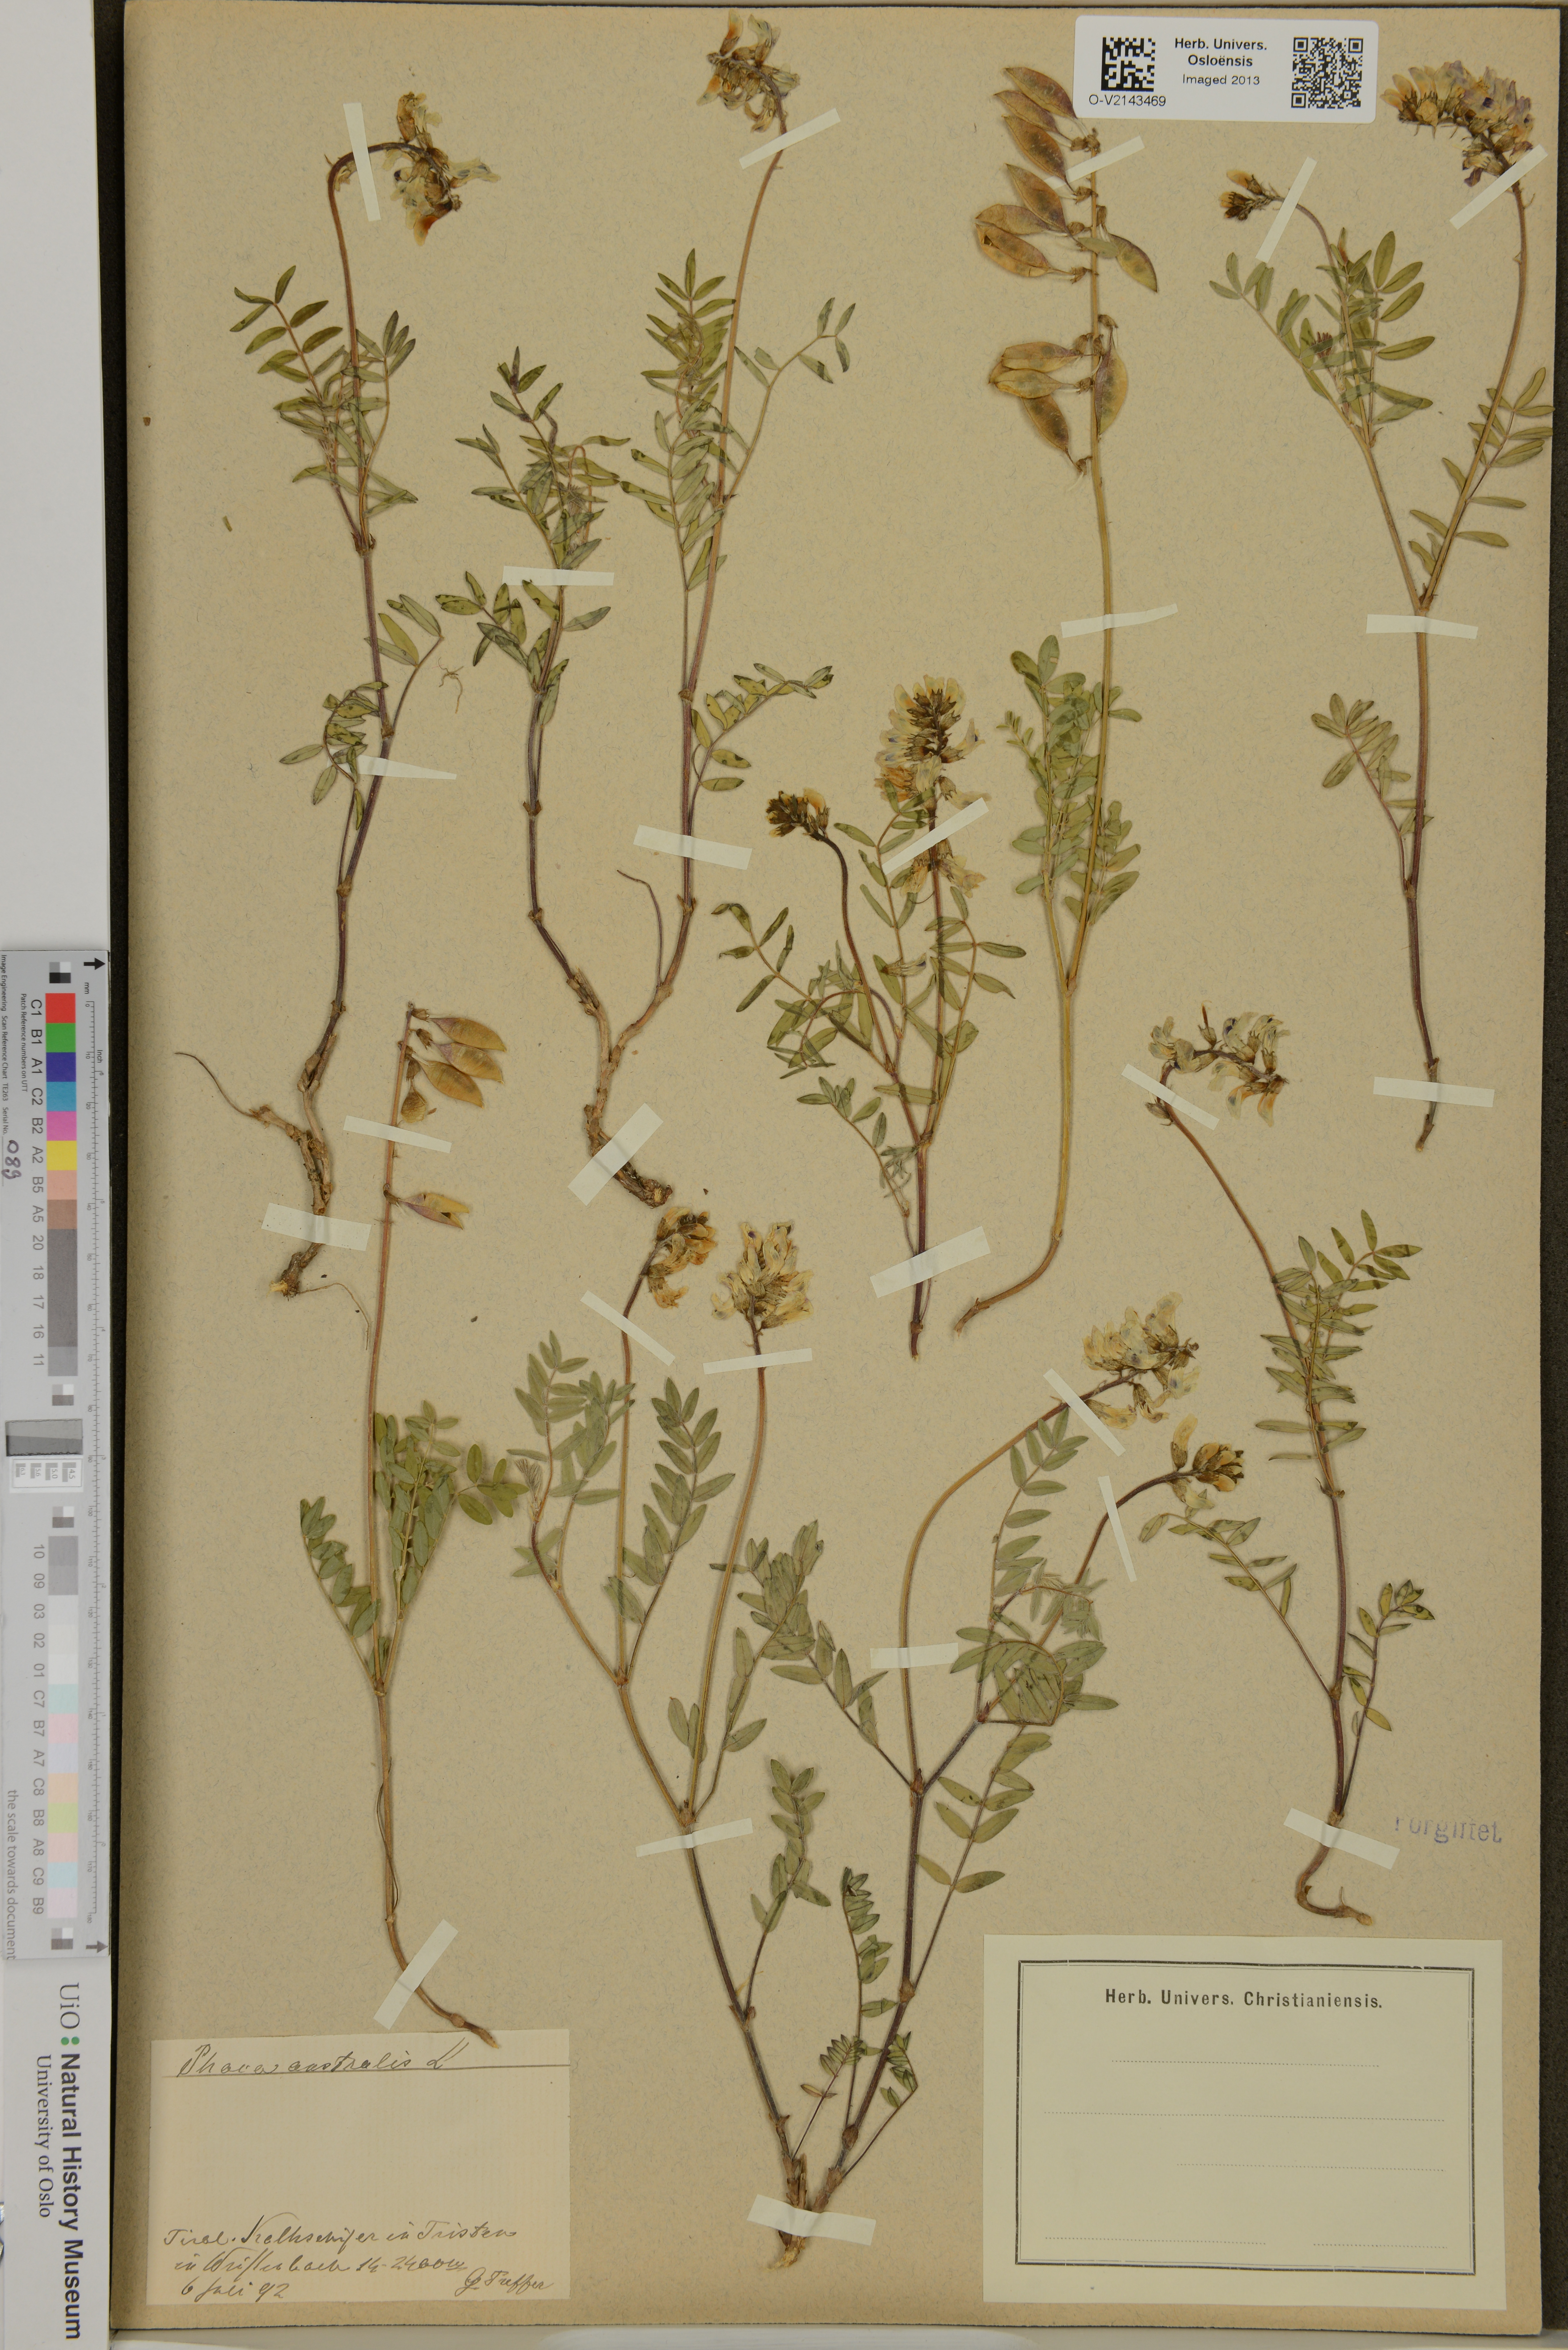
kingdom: Plantae
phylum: Tracheophyta
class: Magnoliopsida
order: Fabales
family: Fabaceae
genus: Astragalus
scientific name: Astragalus australis
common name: Indian milk-vetch
